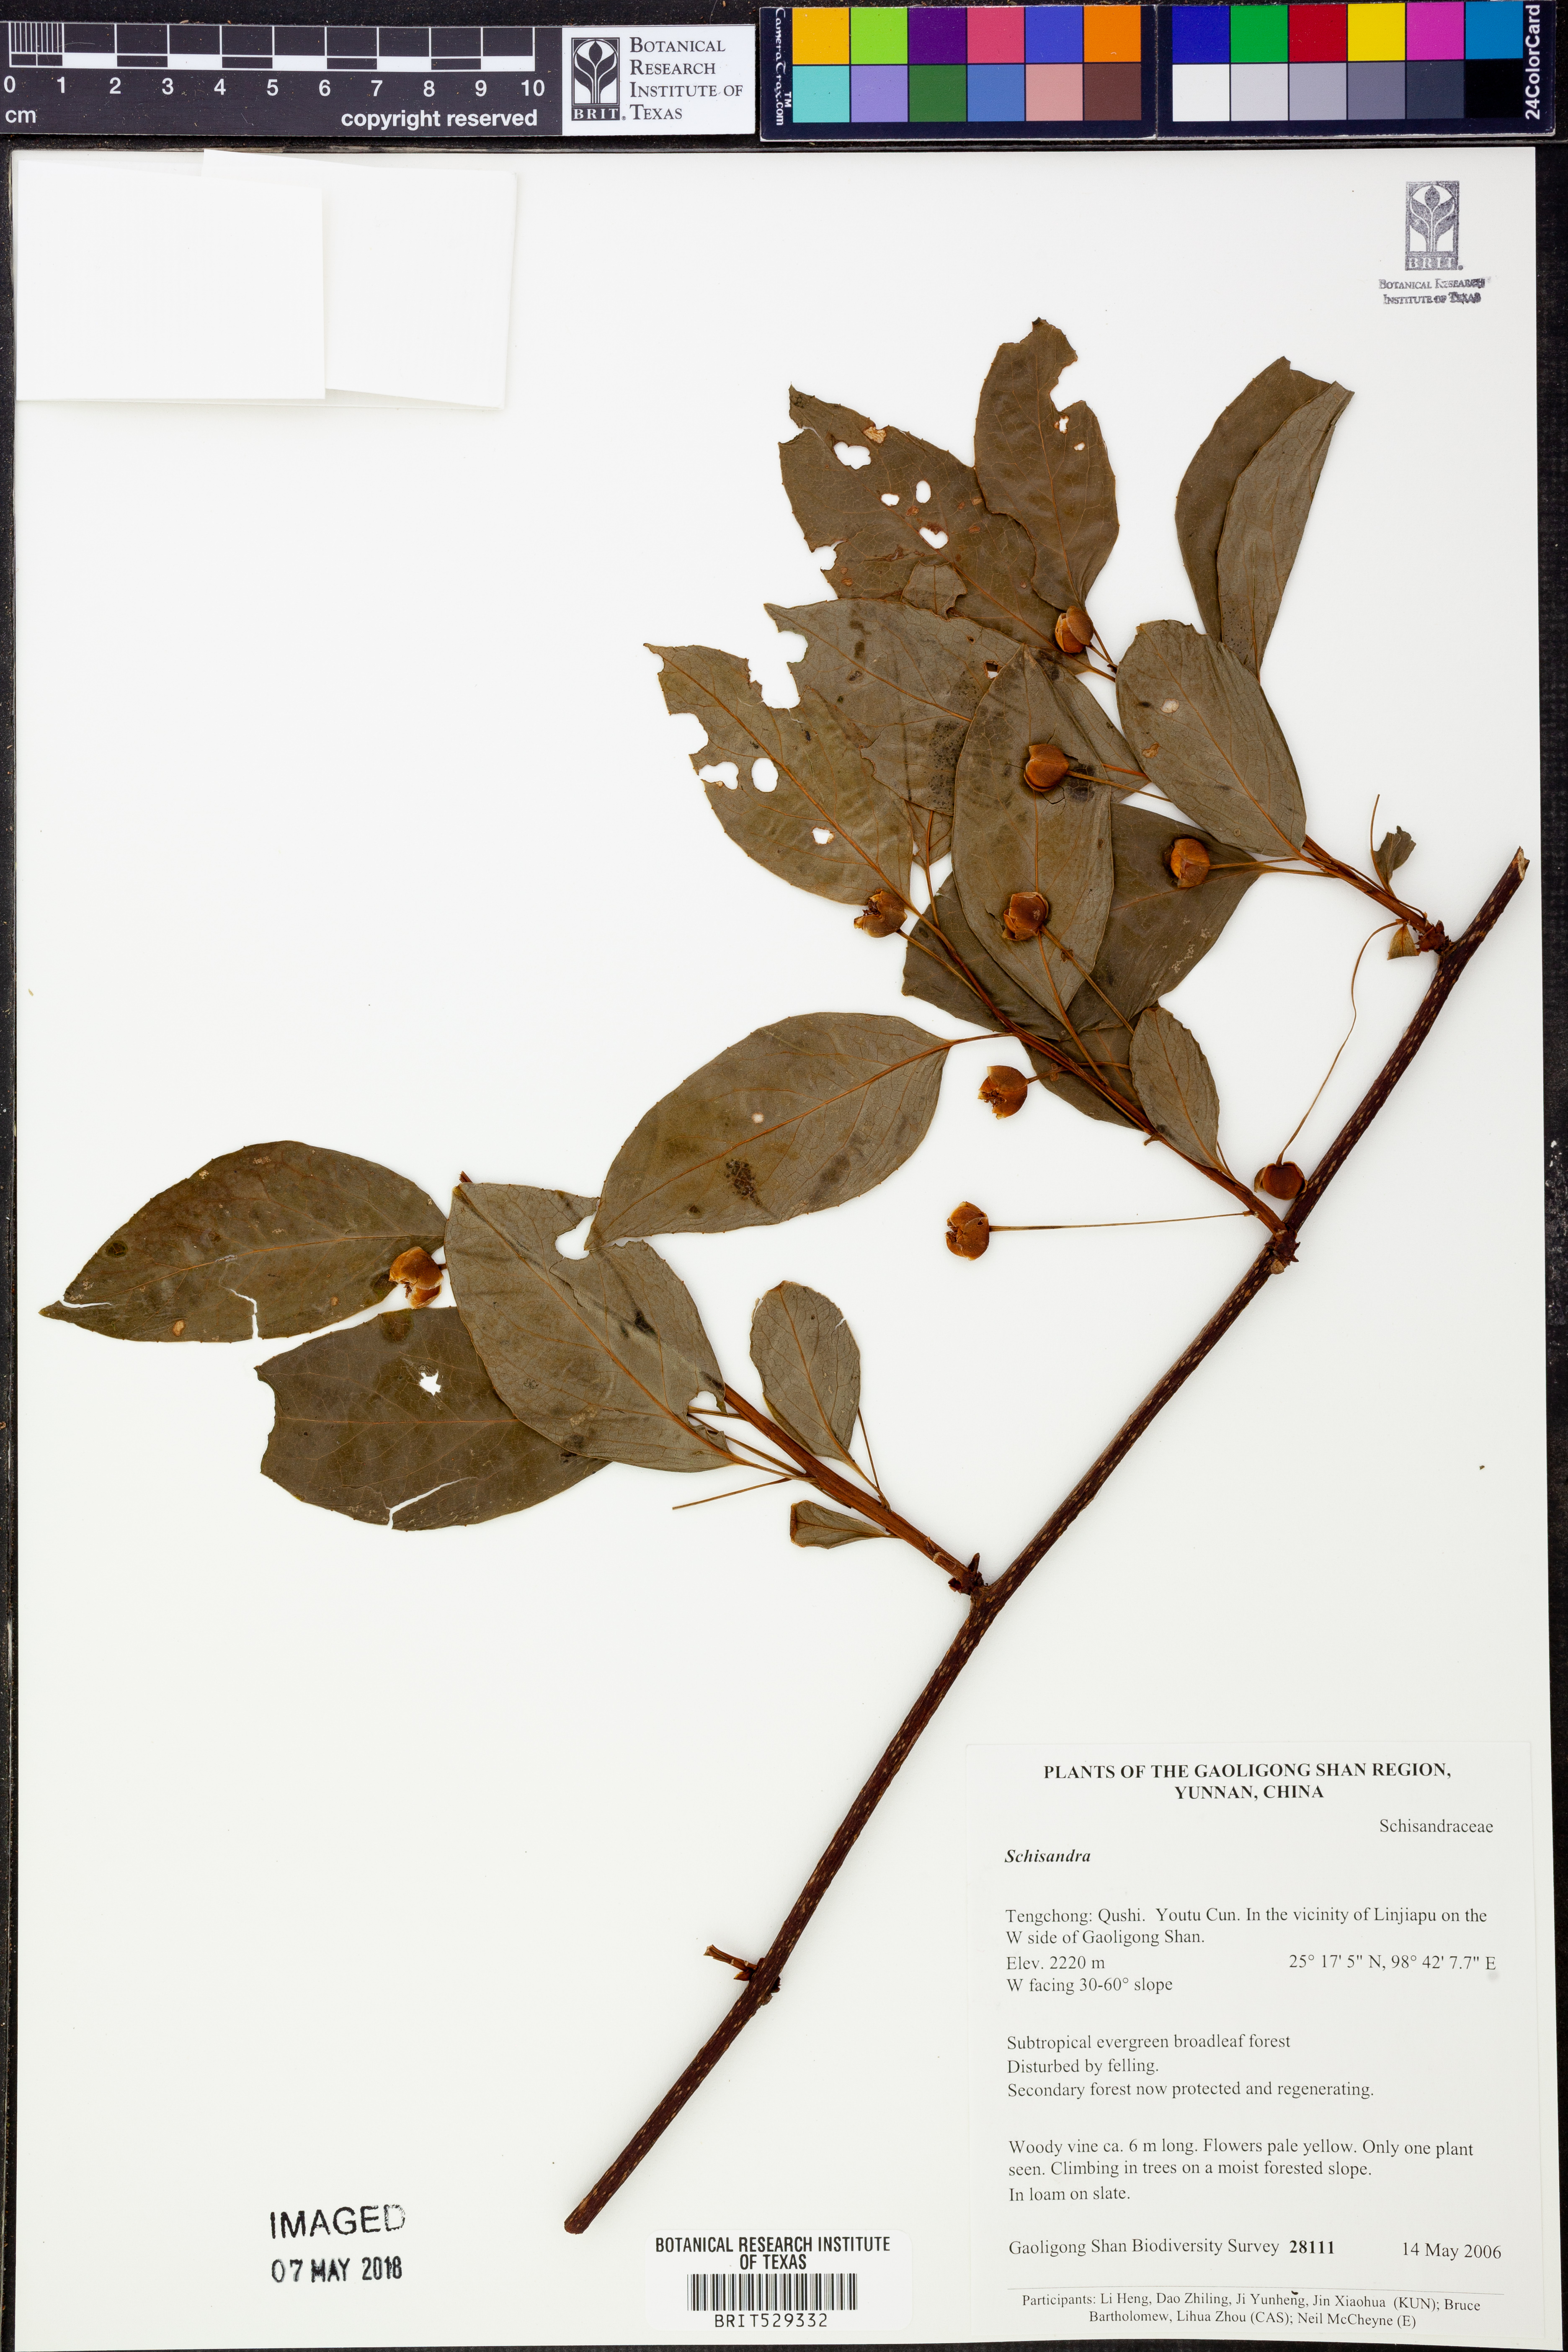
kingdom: Plantae
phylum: Tracheophyta
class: Magnoliopsida
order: Austrobaileyales
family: Schisandraceae
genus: Schisandra
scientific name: Schisandra
